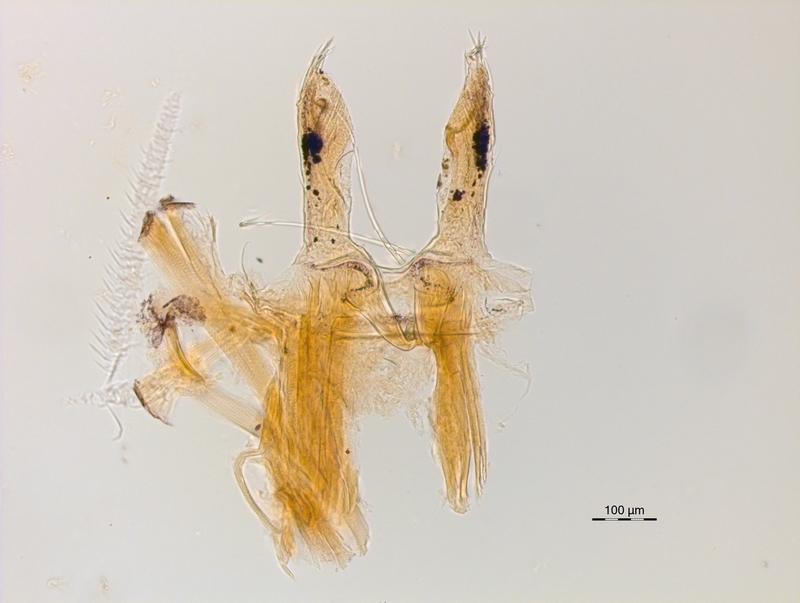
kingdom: Animalia
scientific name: Animalia
